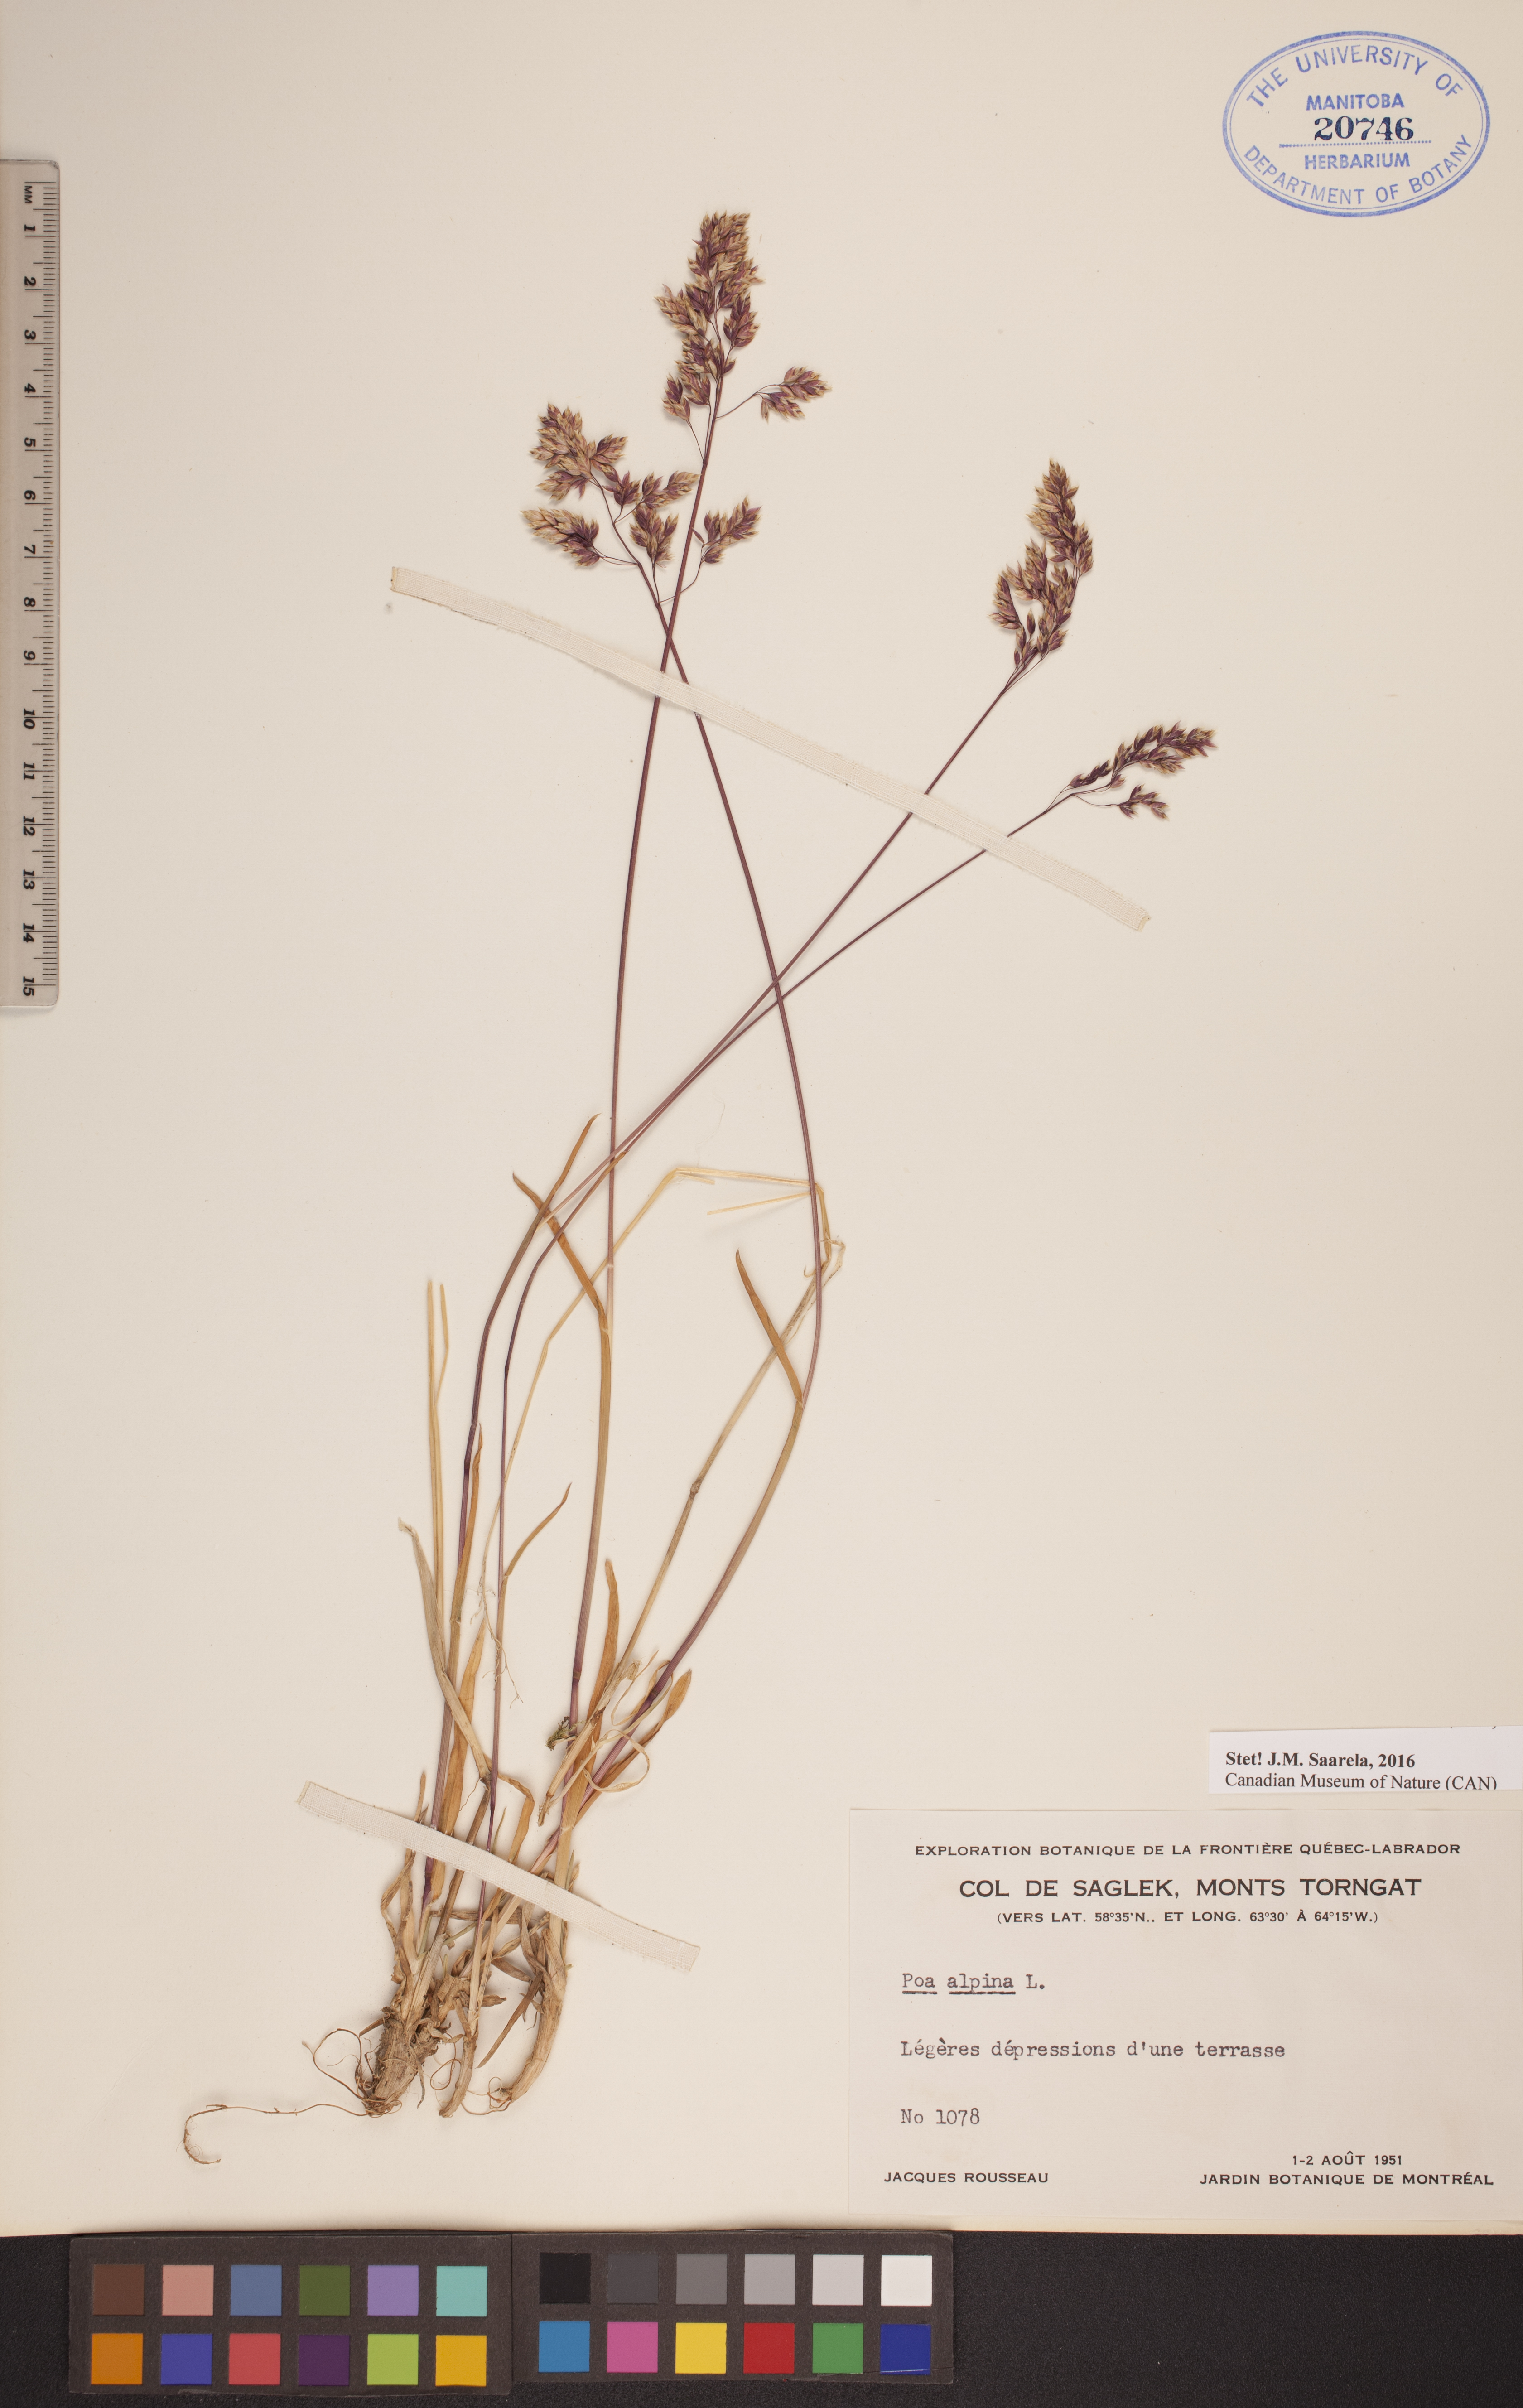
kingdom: Plantae
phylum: Tracheophyta
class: Liliopsida
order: Poales
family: Poaceae
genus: Poa
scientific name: Poa alpina
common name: Alpine bluegrass
